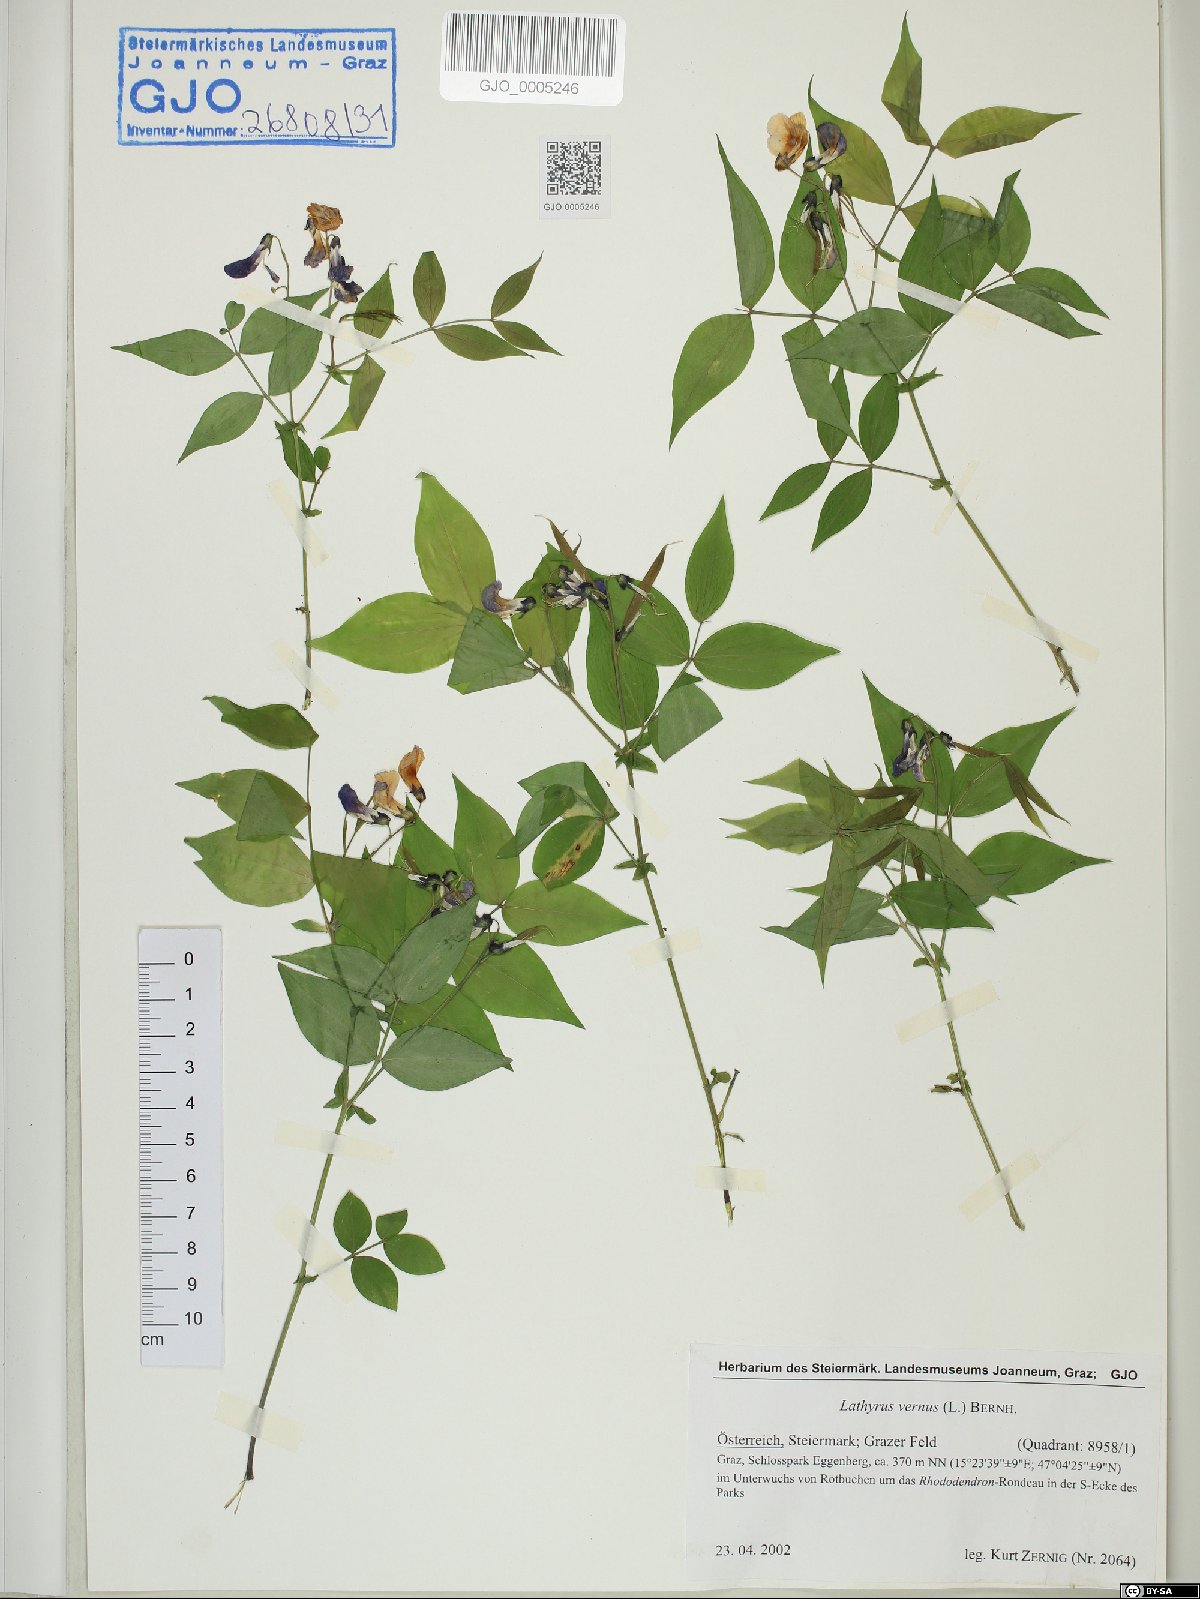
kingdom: Plantae
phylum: Tracheophyta
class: Magnoliopsida
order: Fabales
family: Fabaceae
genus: Lathyrus
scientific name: Lathyrus vernus
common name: Spring pea
